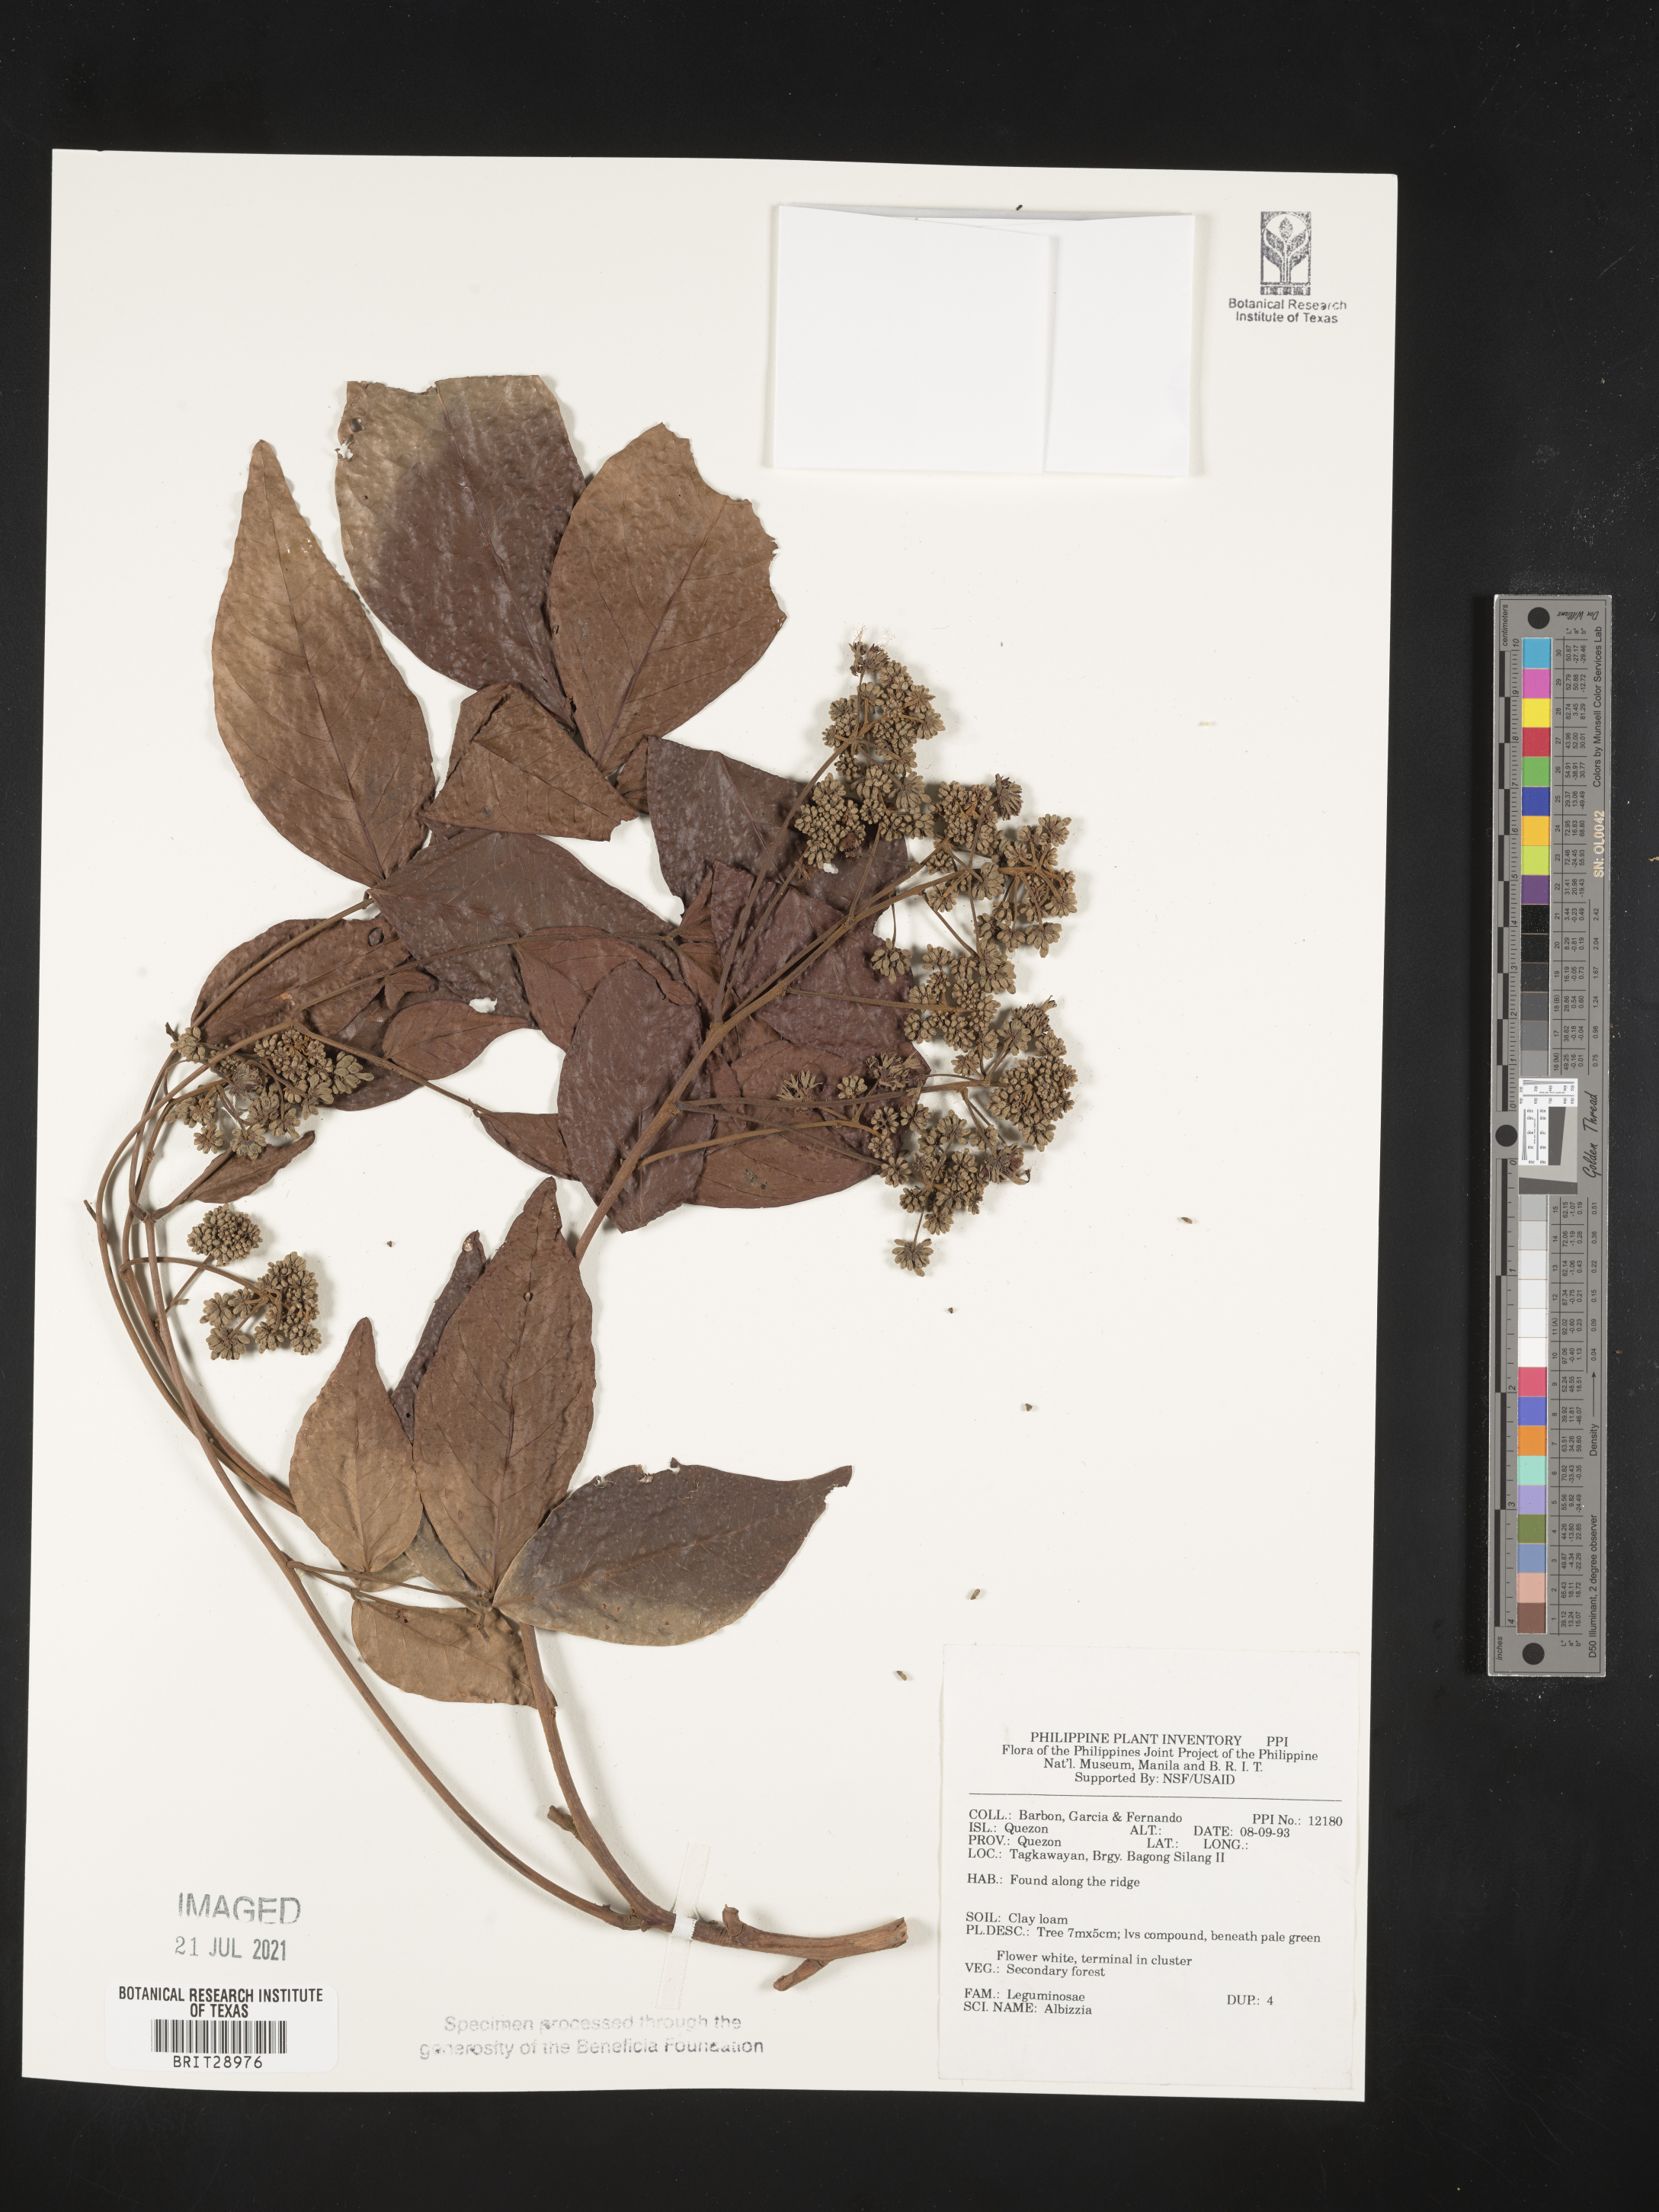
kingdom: Plantae
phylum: Tracheophyta
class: Magnoliopsida
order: Fabales
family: Fabaceae
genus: Albizia
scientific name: Albizia
